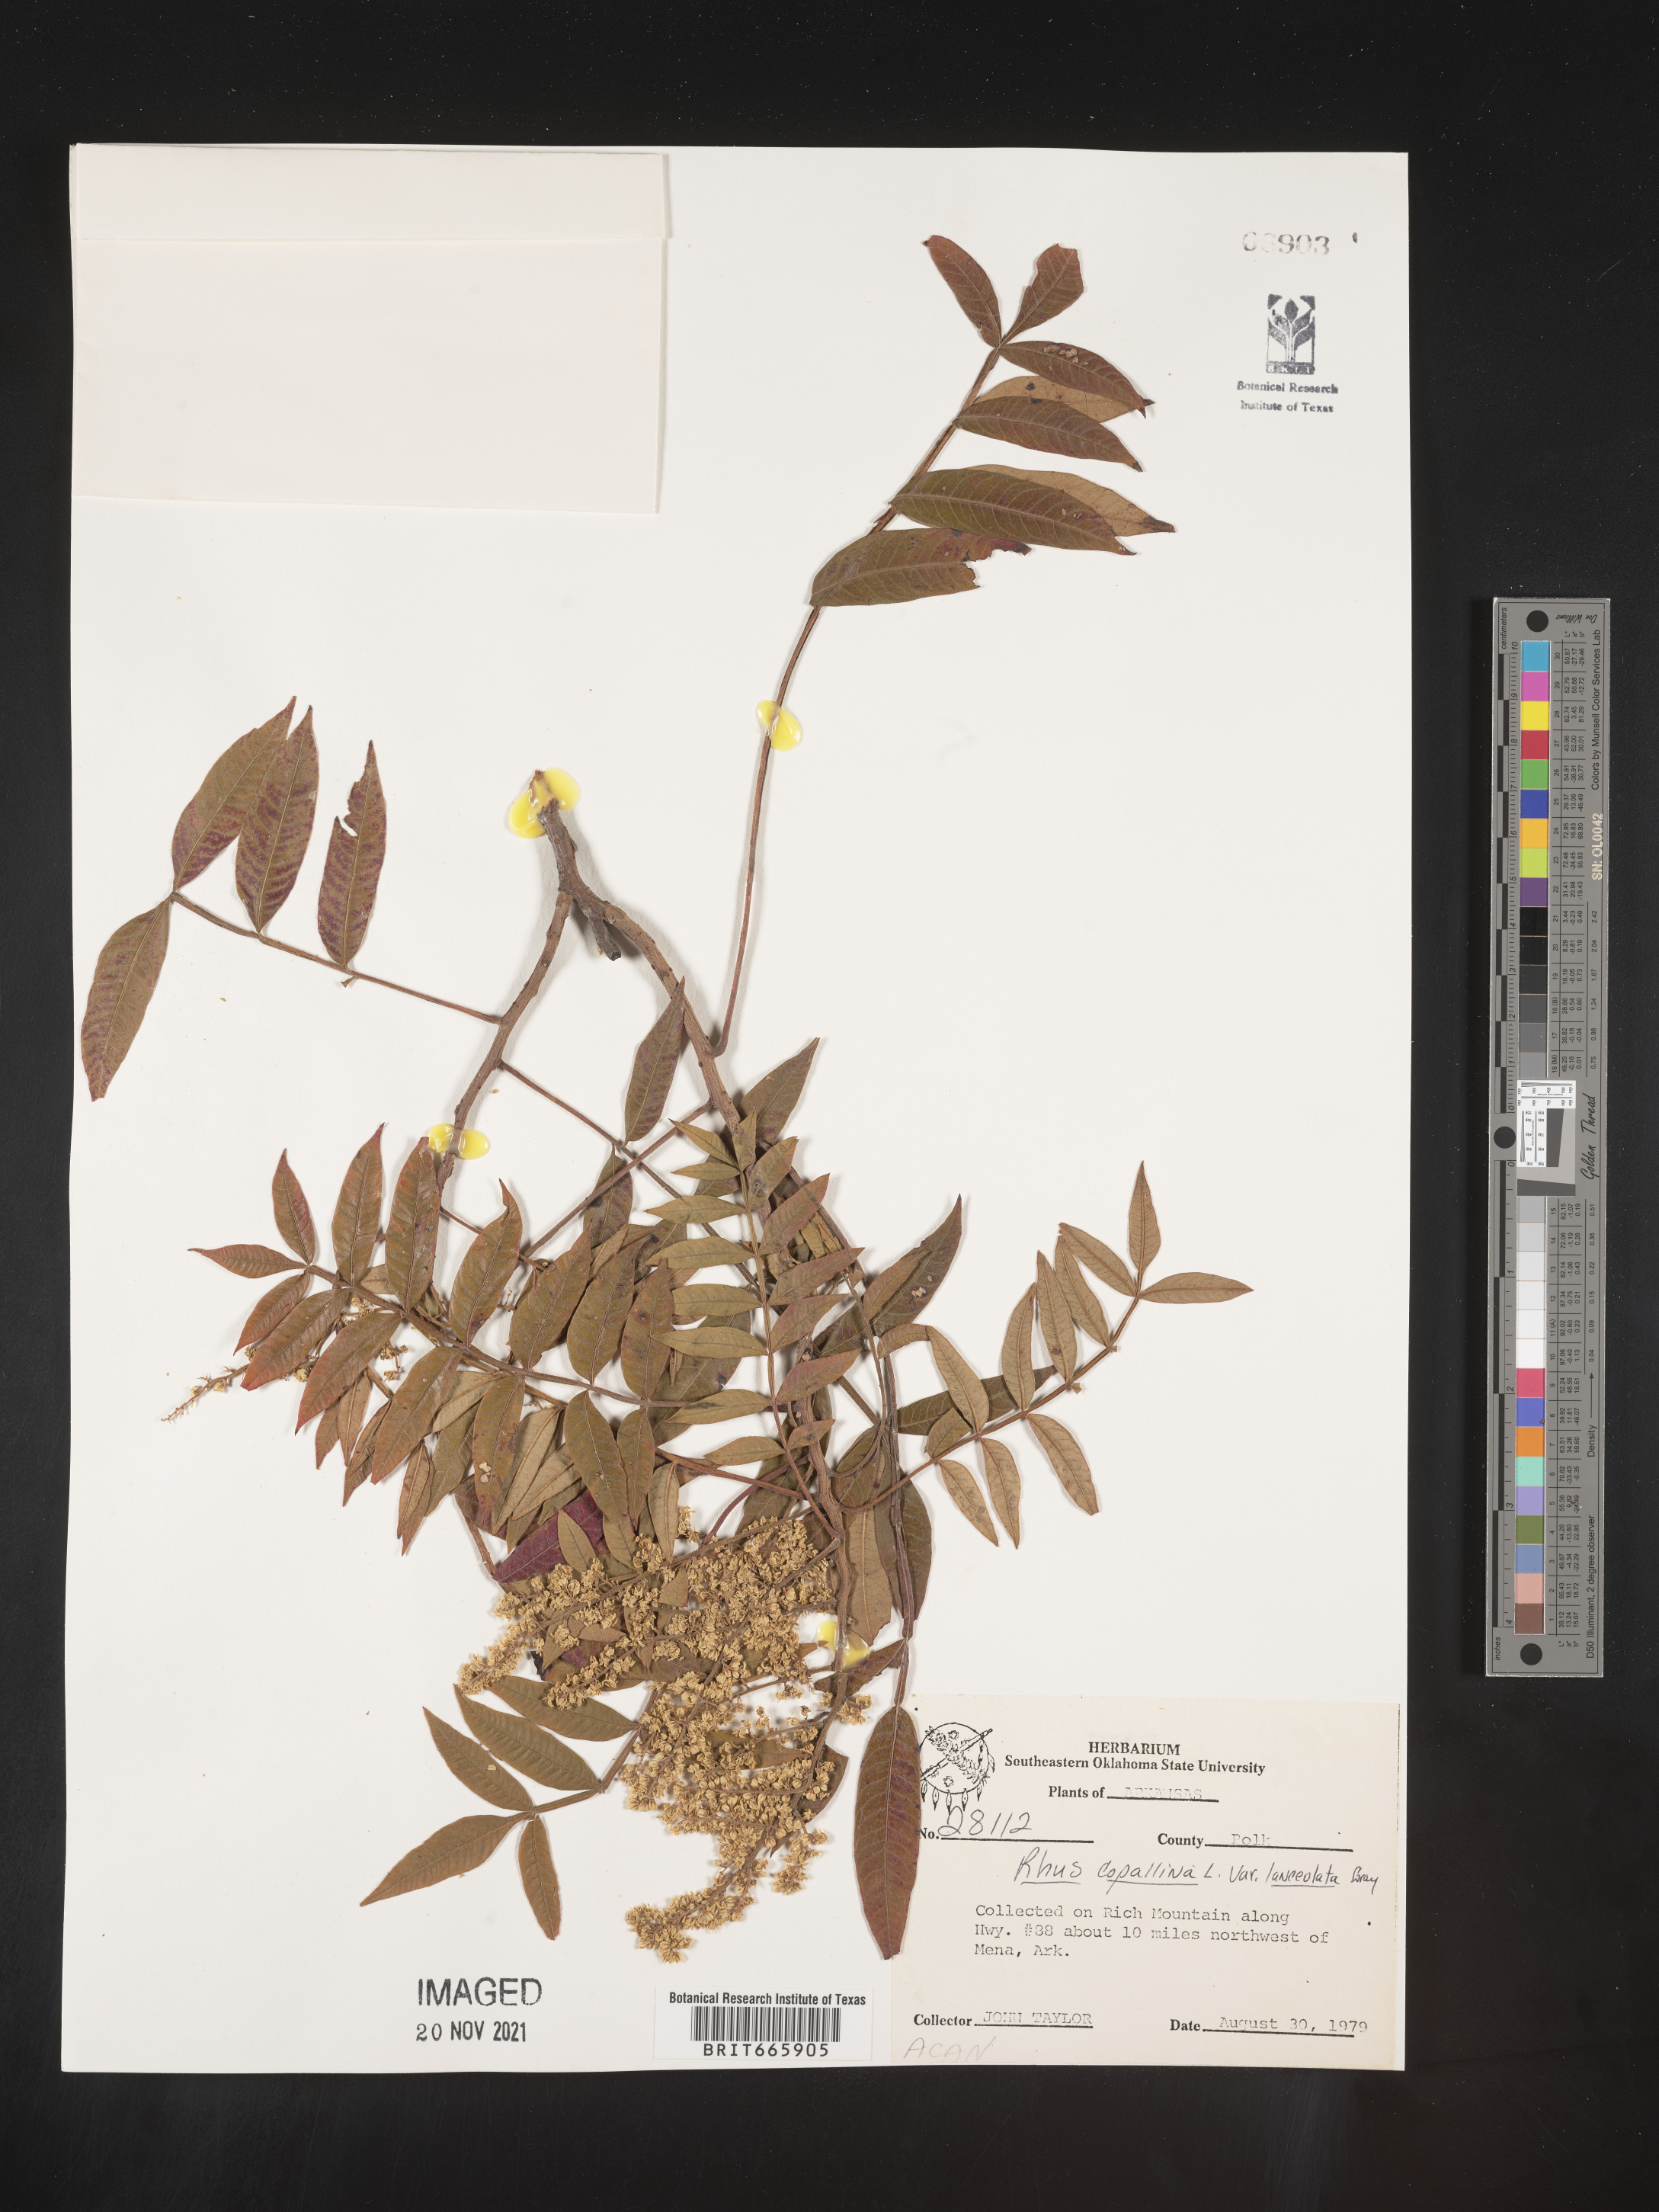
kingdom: Plantae
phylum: Tracheophyta
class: Magnoliopsida
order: Sapindales
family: Anacardiaceae
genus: Rhus
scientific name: Rhus copallina
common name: Shining sumac
